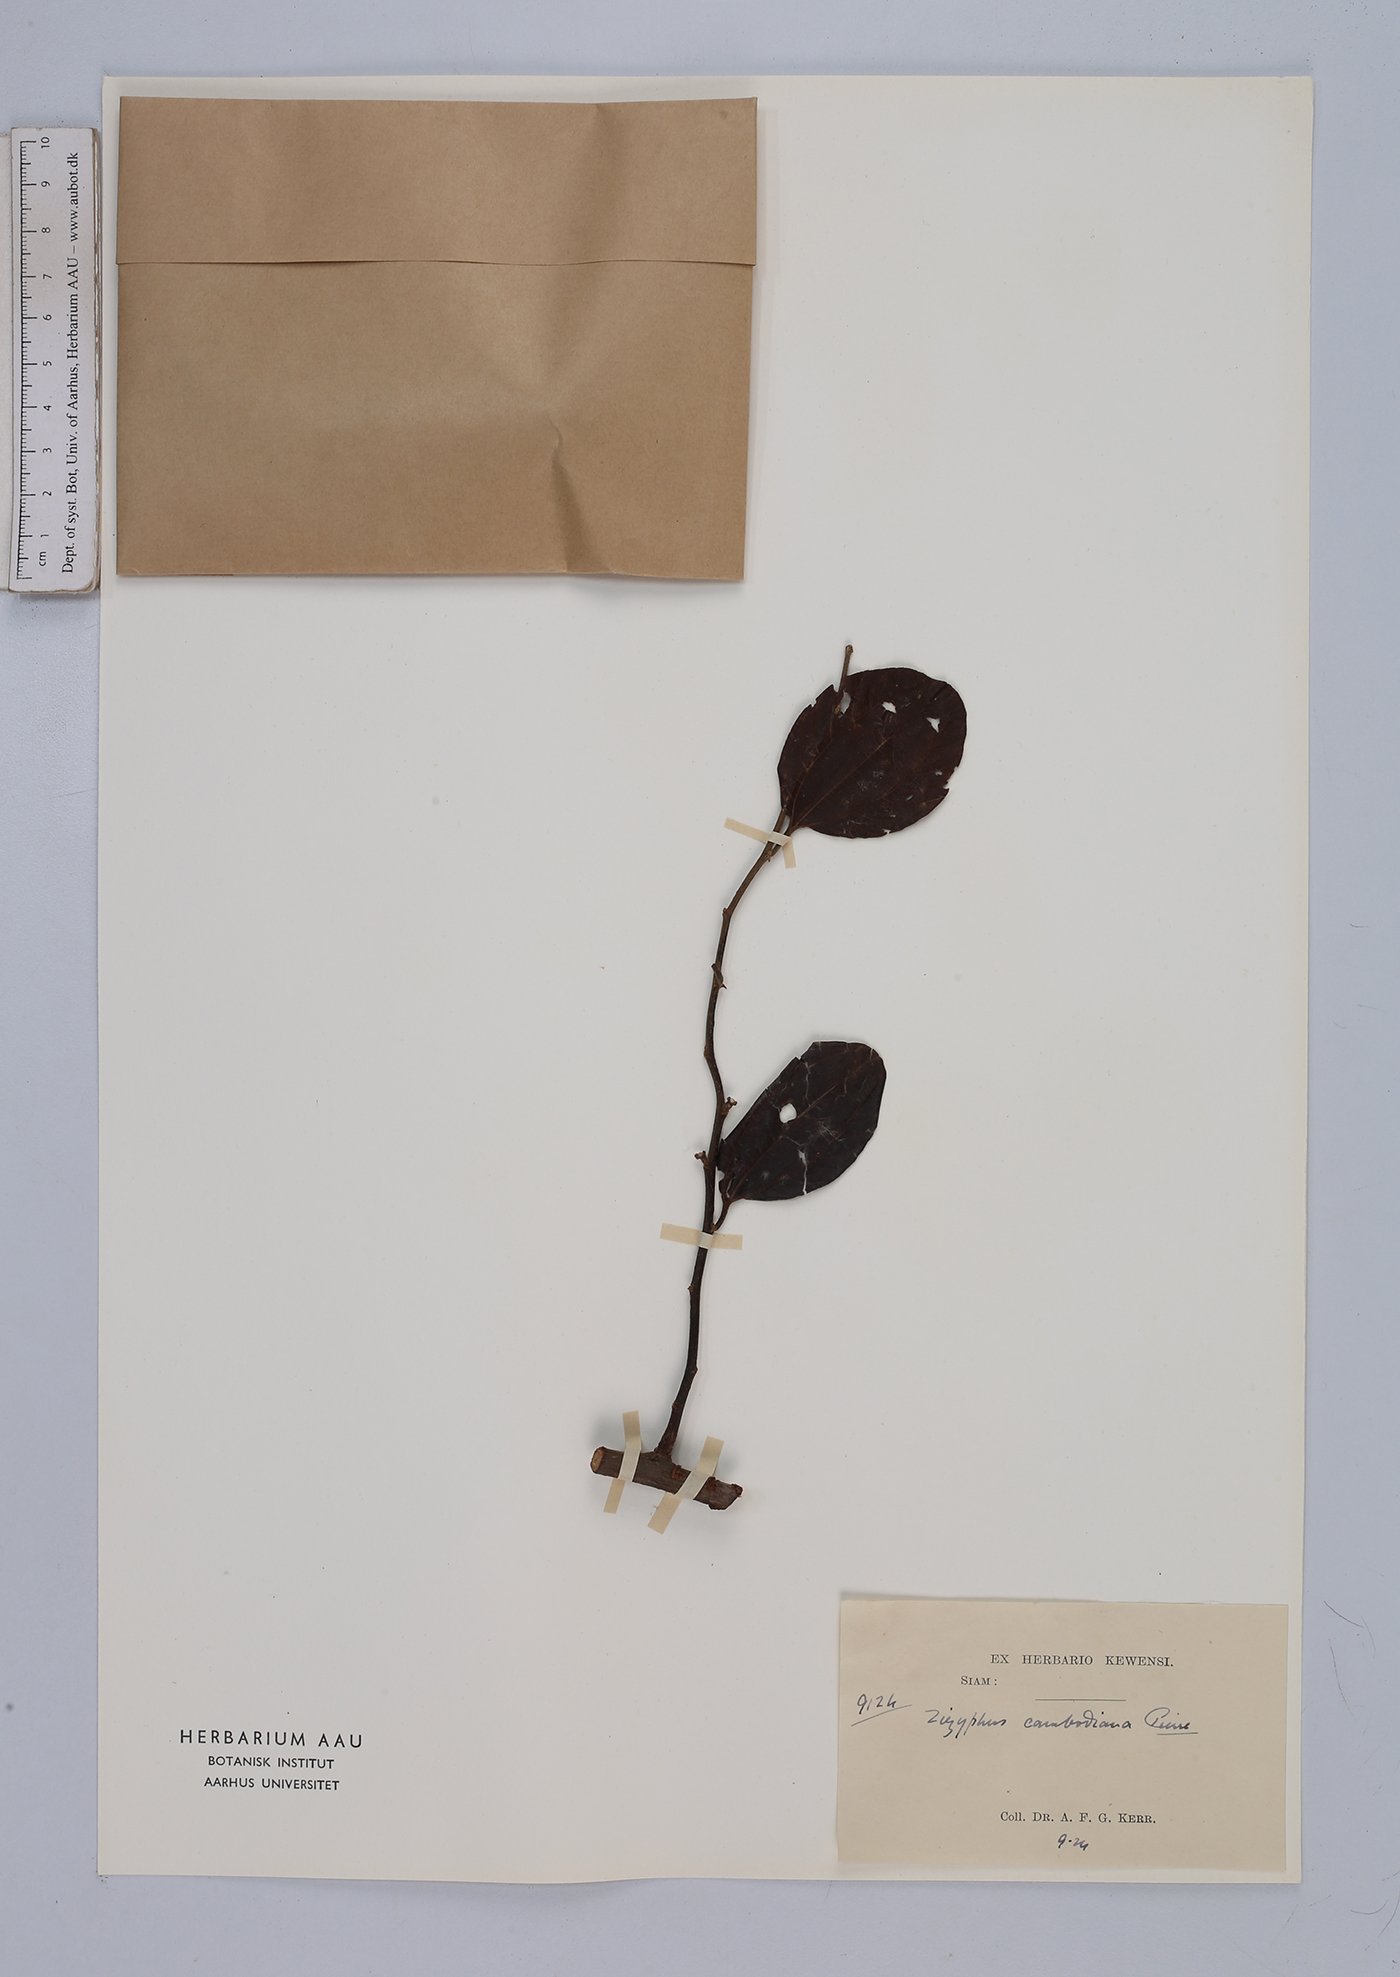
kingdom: Plantae
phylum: Tracheophyta
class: Magnoliopsida
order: Rosales
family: Rhamnaceae
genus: Ziziphus
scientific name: Ziziphus cambodiana
